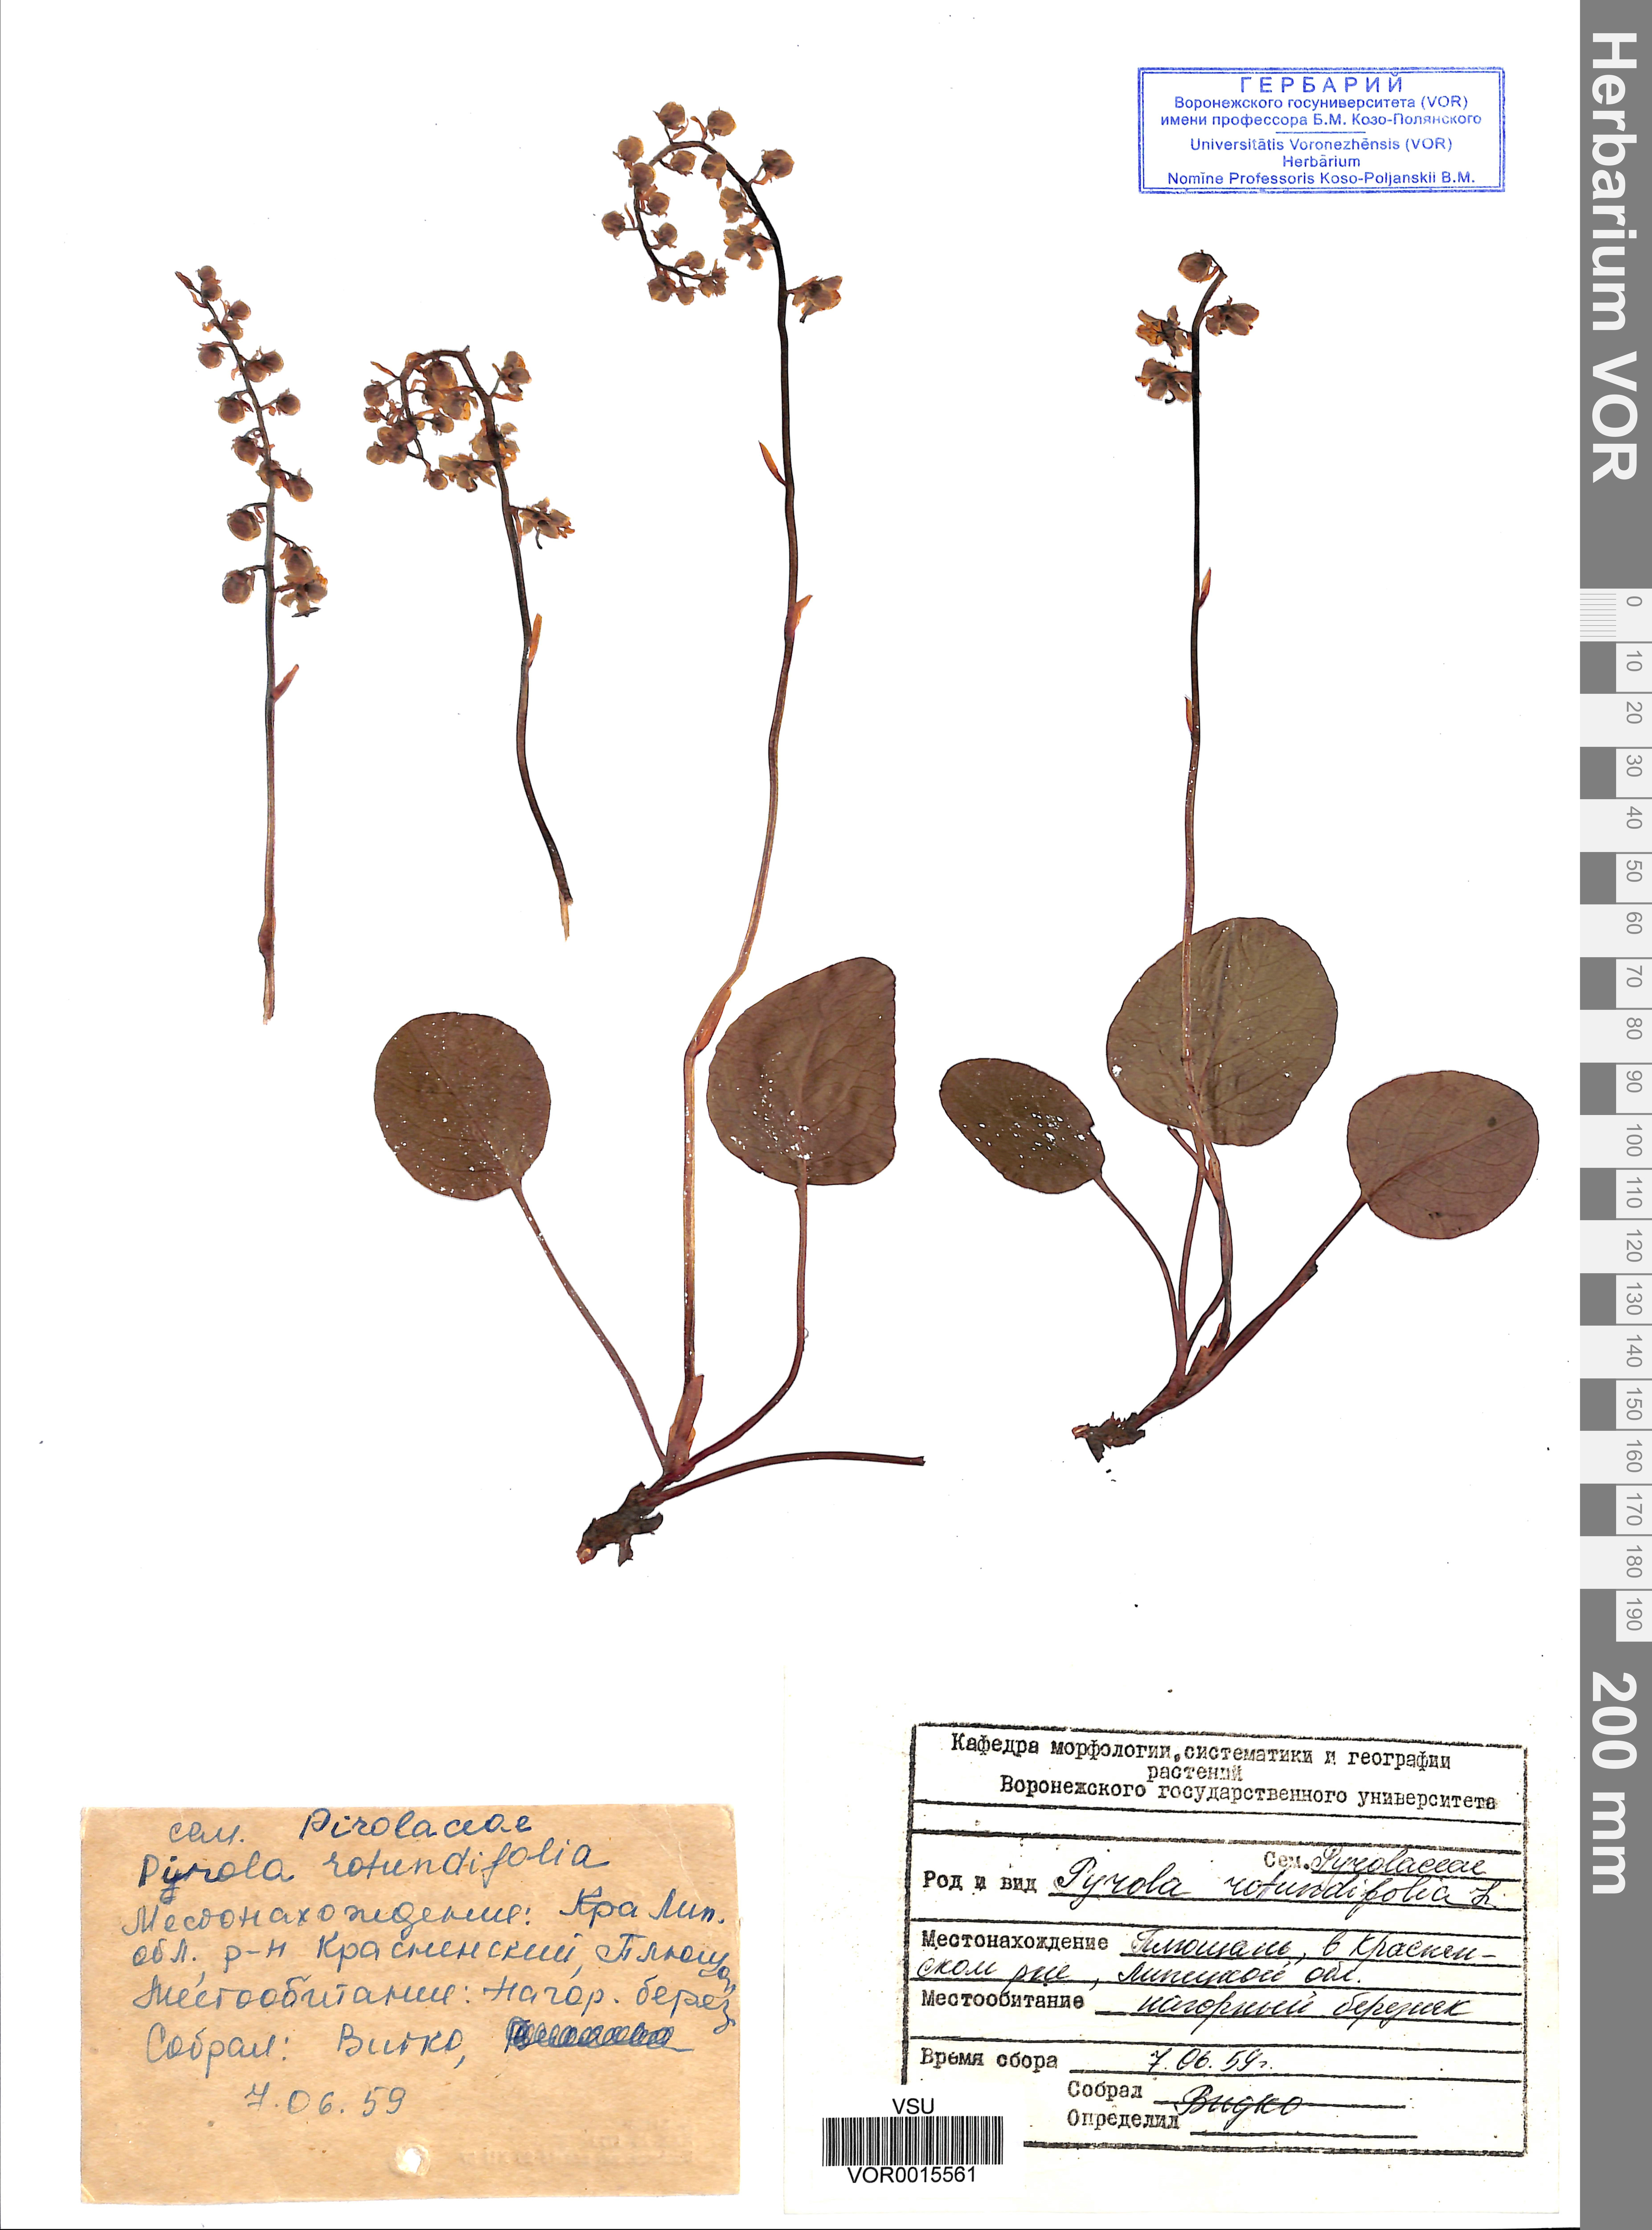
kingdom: Plantae
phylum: Tracheophyta
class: Magnoliopsida
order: Ericales
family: Ericaceae
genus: Pyrola
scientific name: Pyrola rotundifolia
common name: Round-leaved wintergreen
